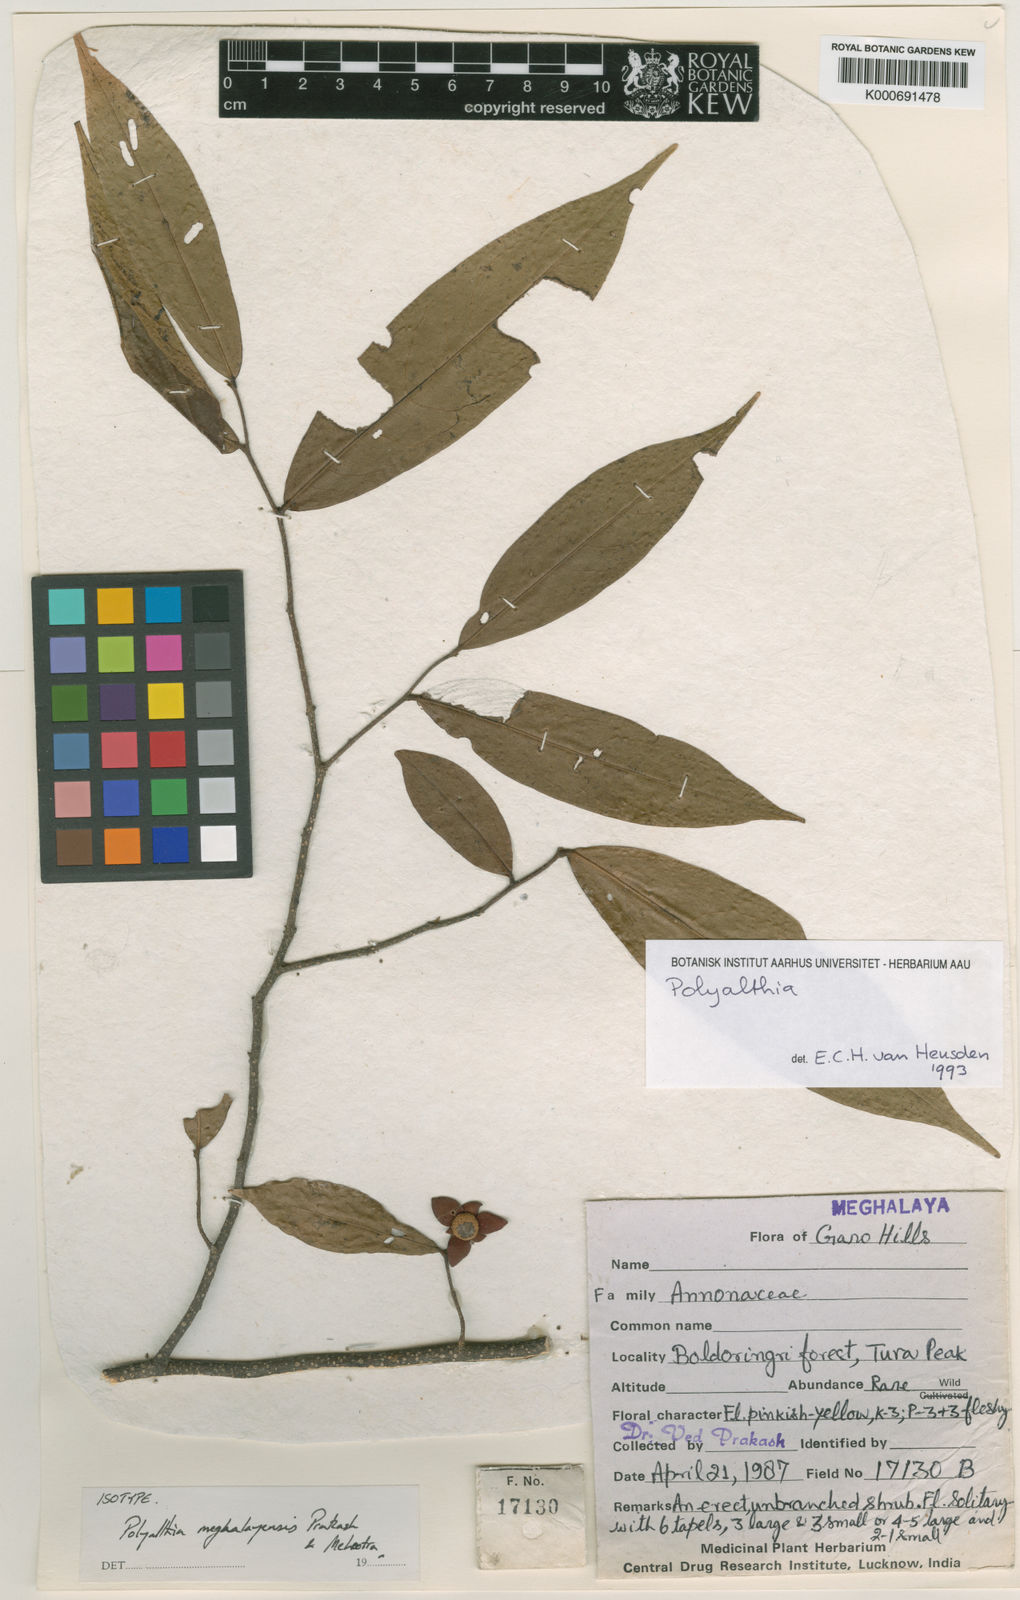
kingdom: Plantae
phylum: Tracheophyta
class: Magnoliopsida
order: Magnoliales
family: Annonaceae
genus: Polyalthia
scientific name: Polyalthia meghalayensis
